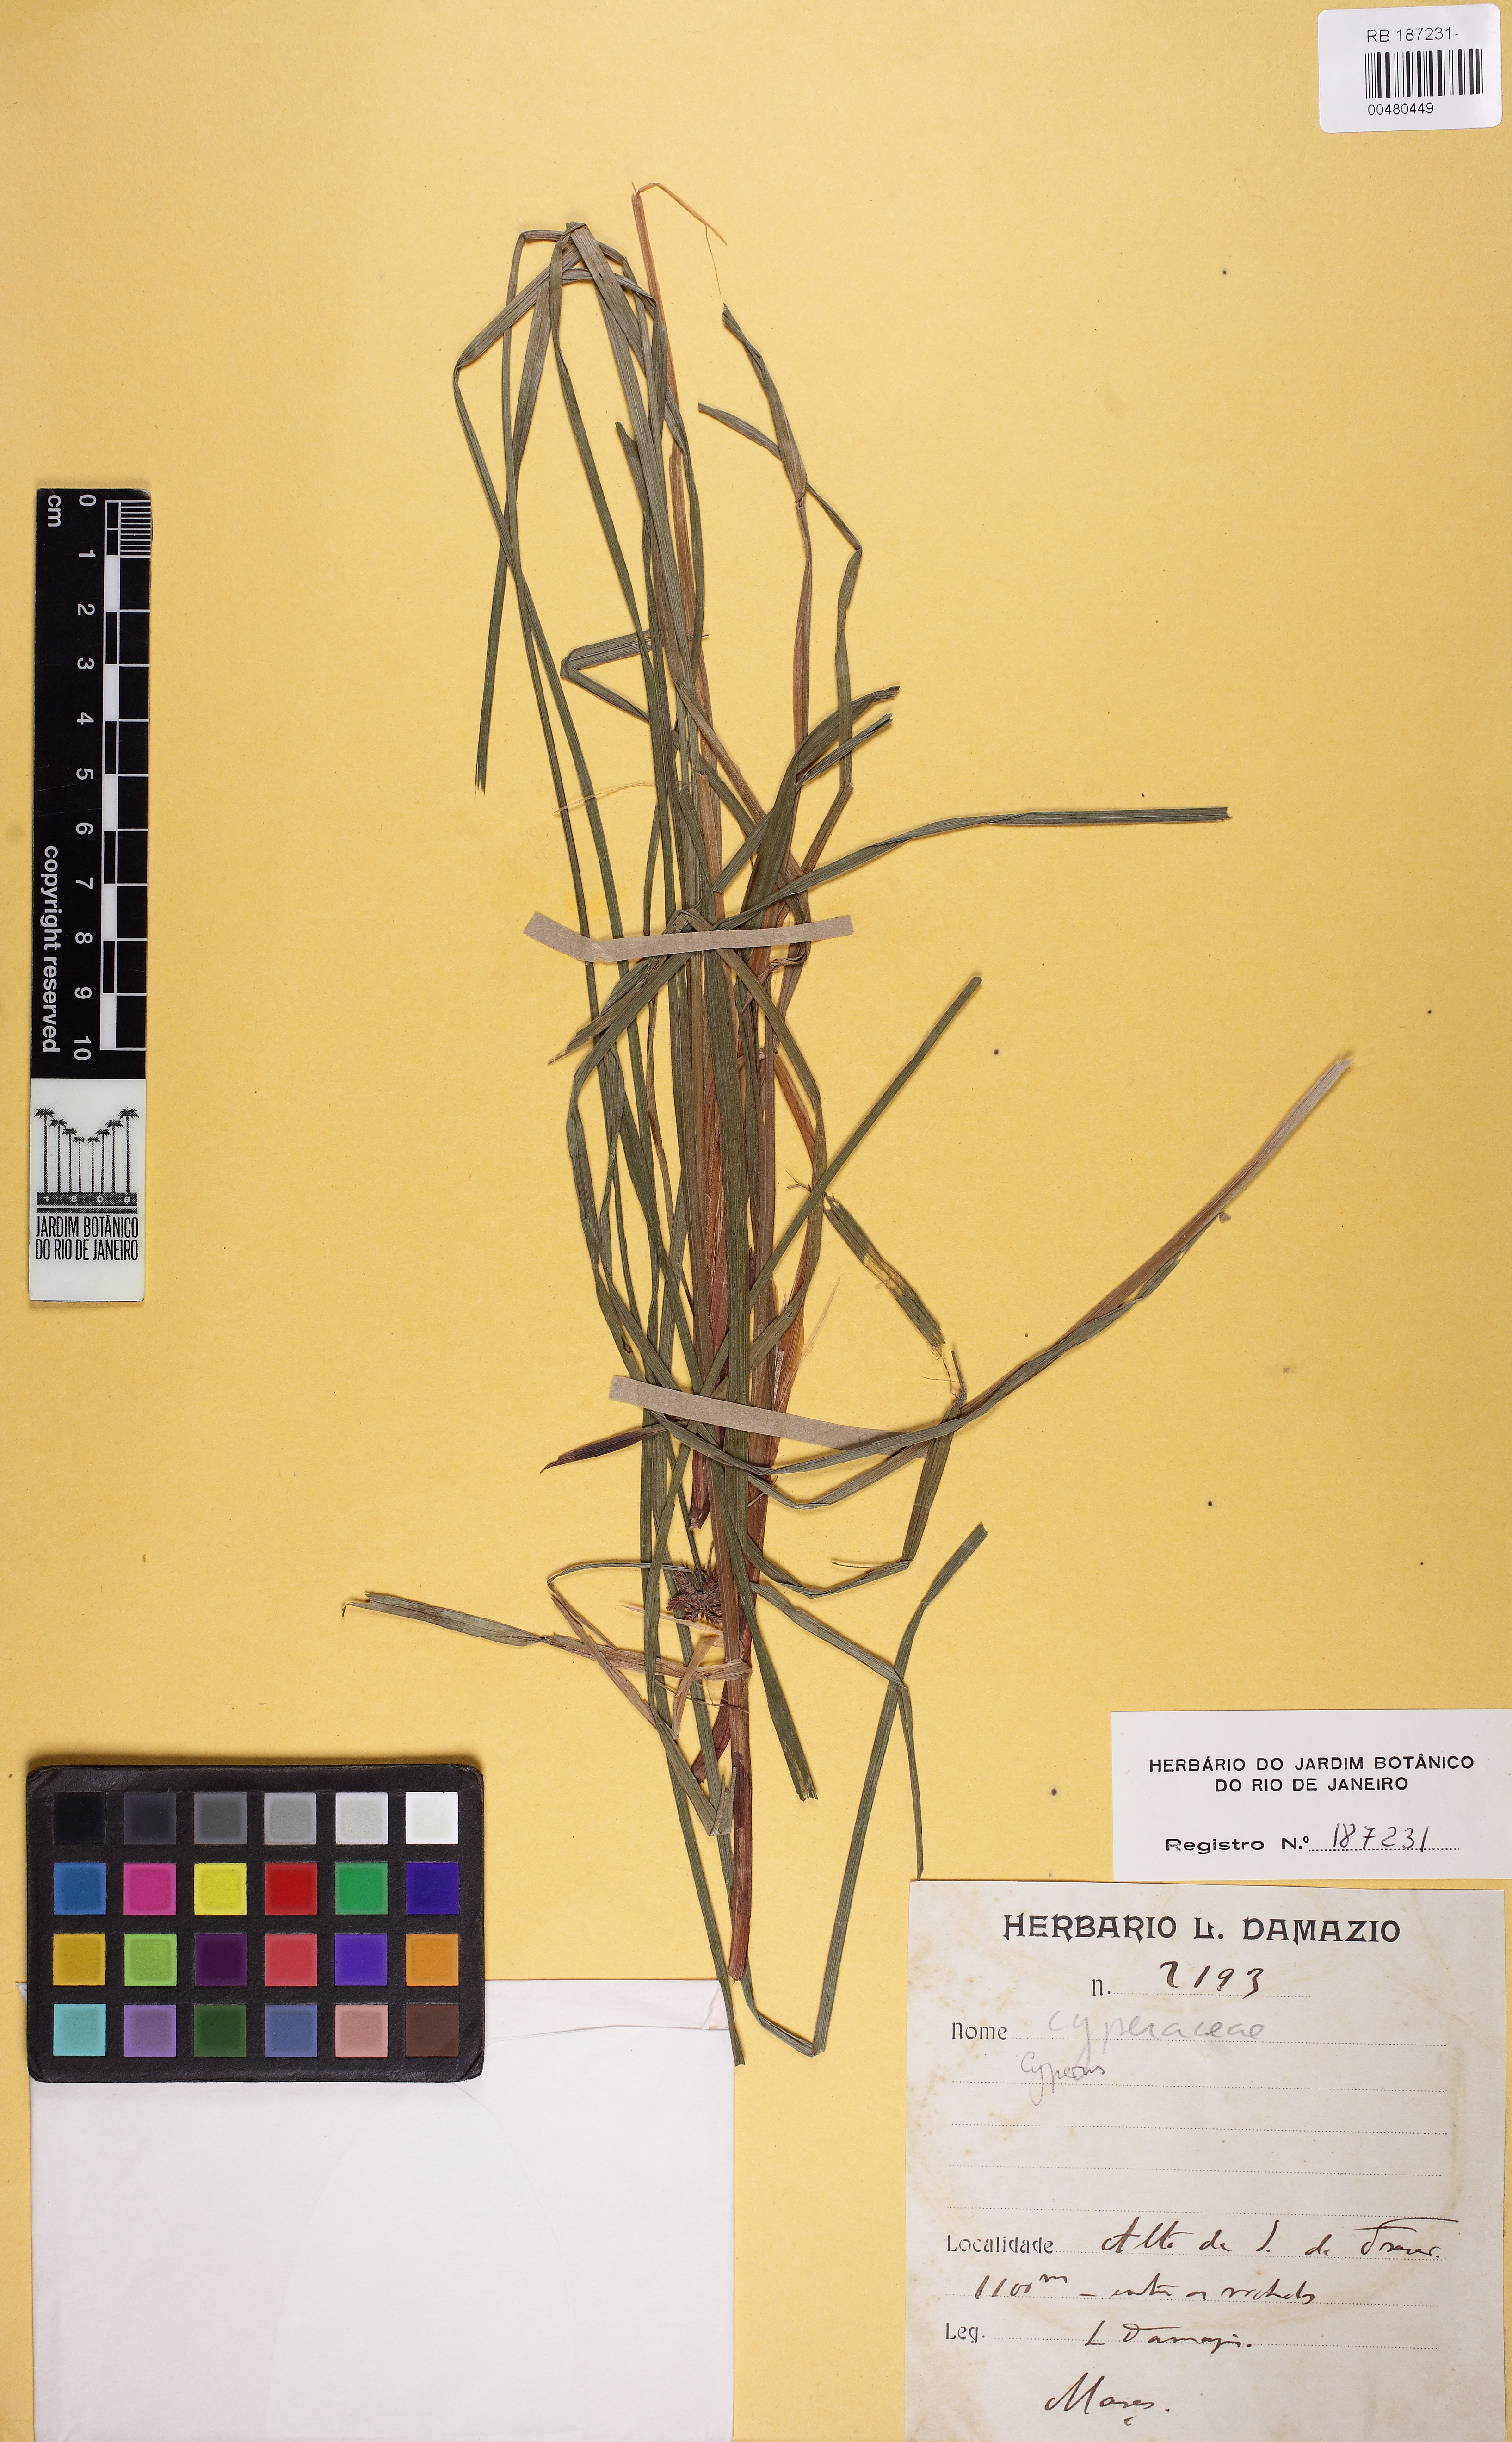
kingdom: Plantae
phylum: Tracheophyta
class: Liliopsida
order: Poales
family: Cyperaceae
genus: Cyperus
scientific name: Cyperus
